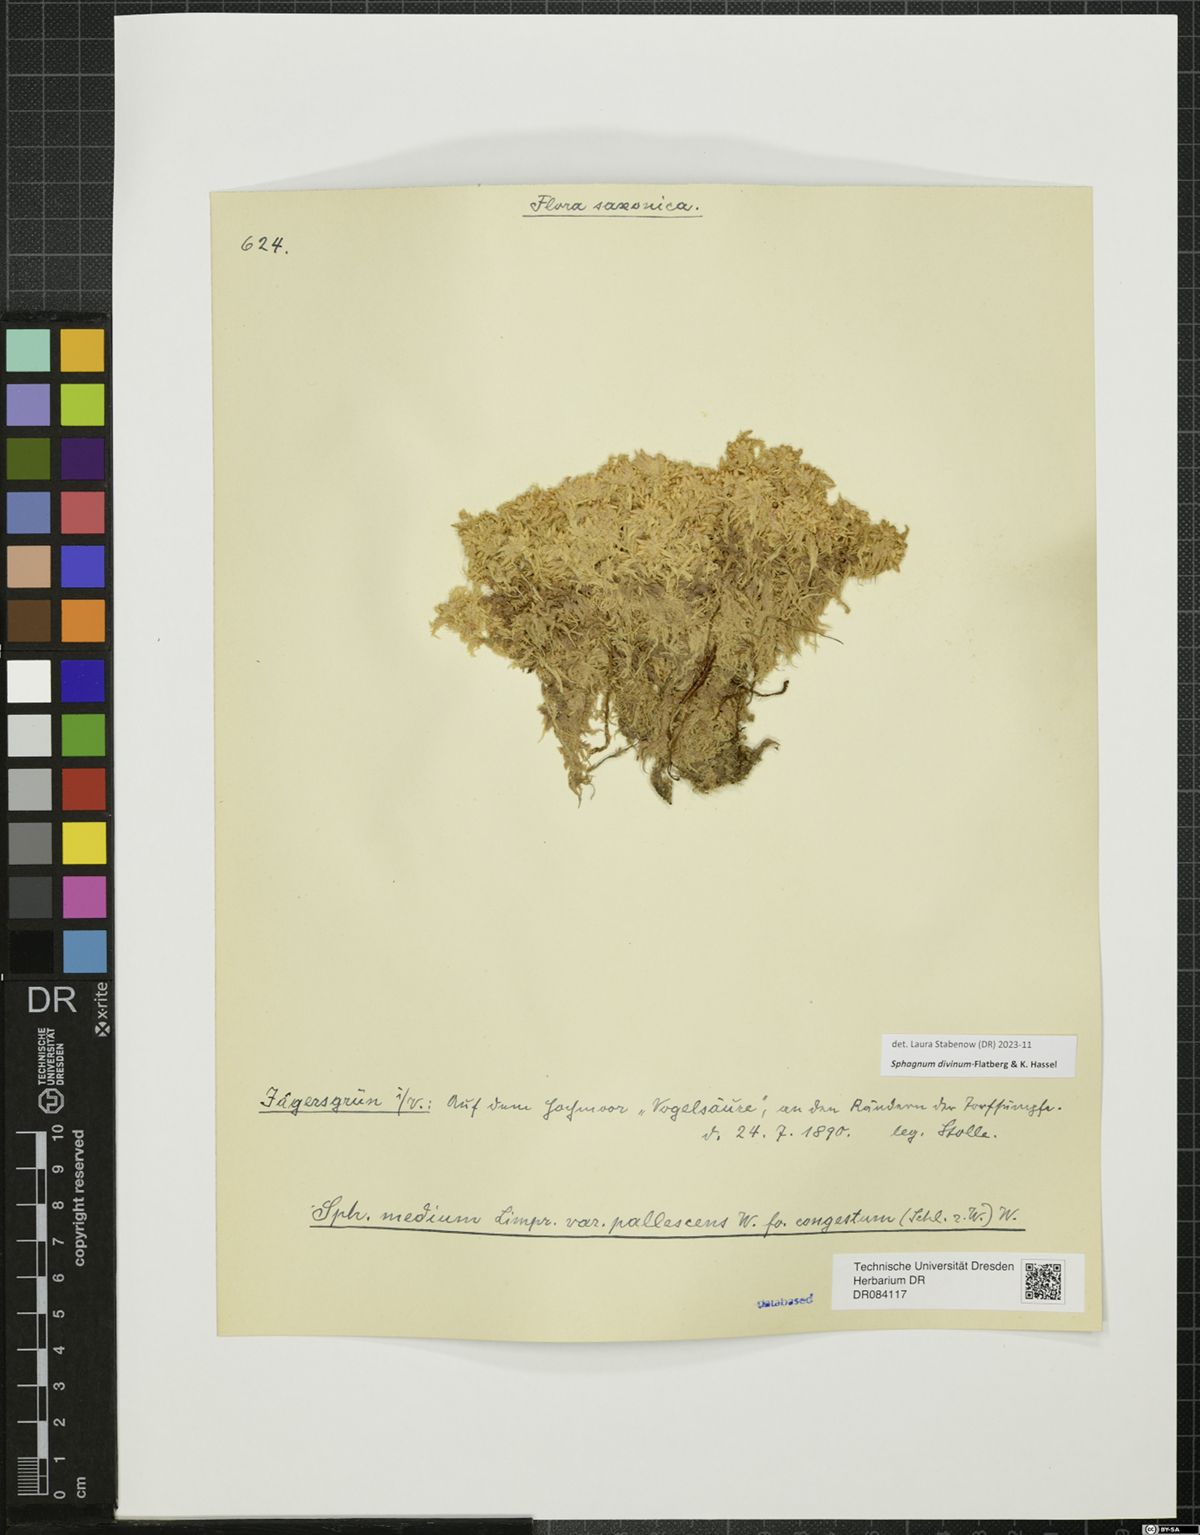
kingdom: Plantae
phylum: Bryophyta
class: Sphagnopsida
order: Sphagnales
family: Sphagnaceae
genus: Sphagnum
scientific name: Sphagnum divinum
